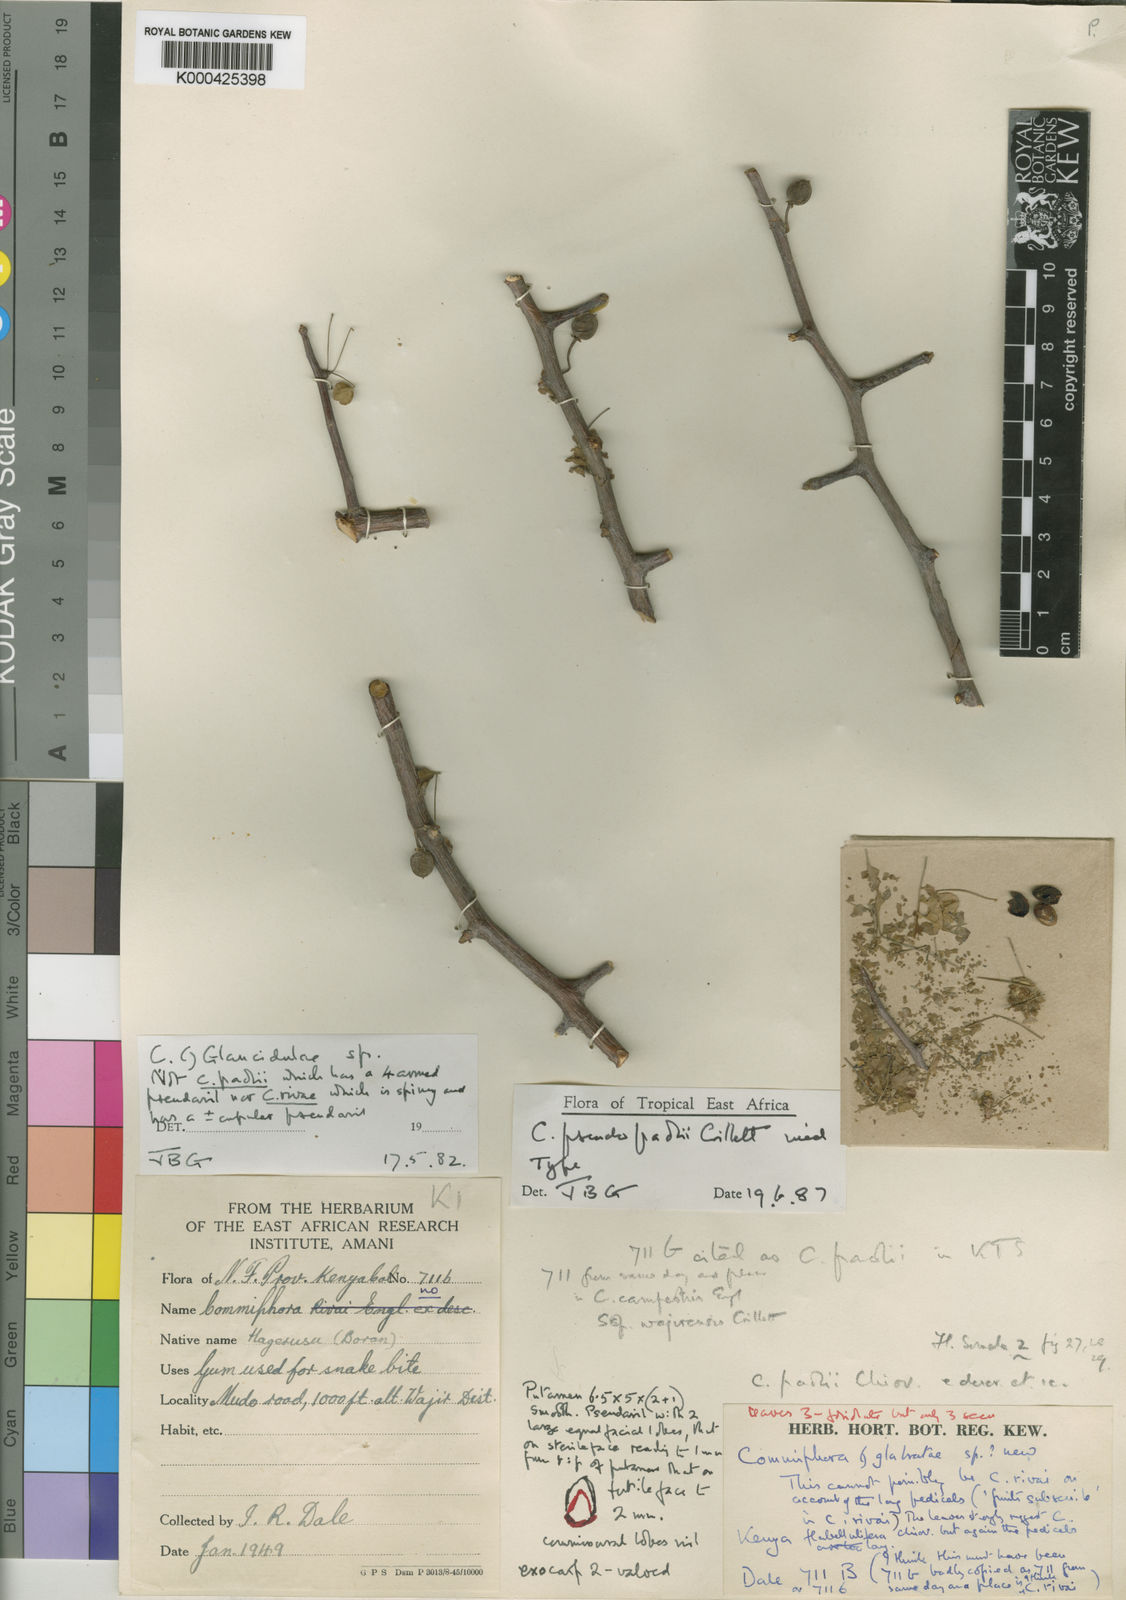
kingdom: Plantae
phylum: Tracheophyta
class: Magnoliopsida
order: Sapindales
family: Burseraceae
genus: Commiphora
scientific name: Commiphora pseudopaolii
